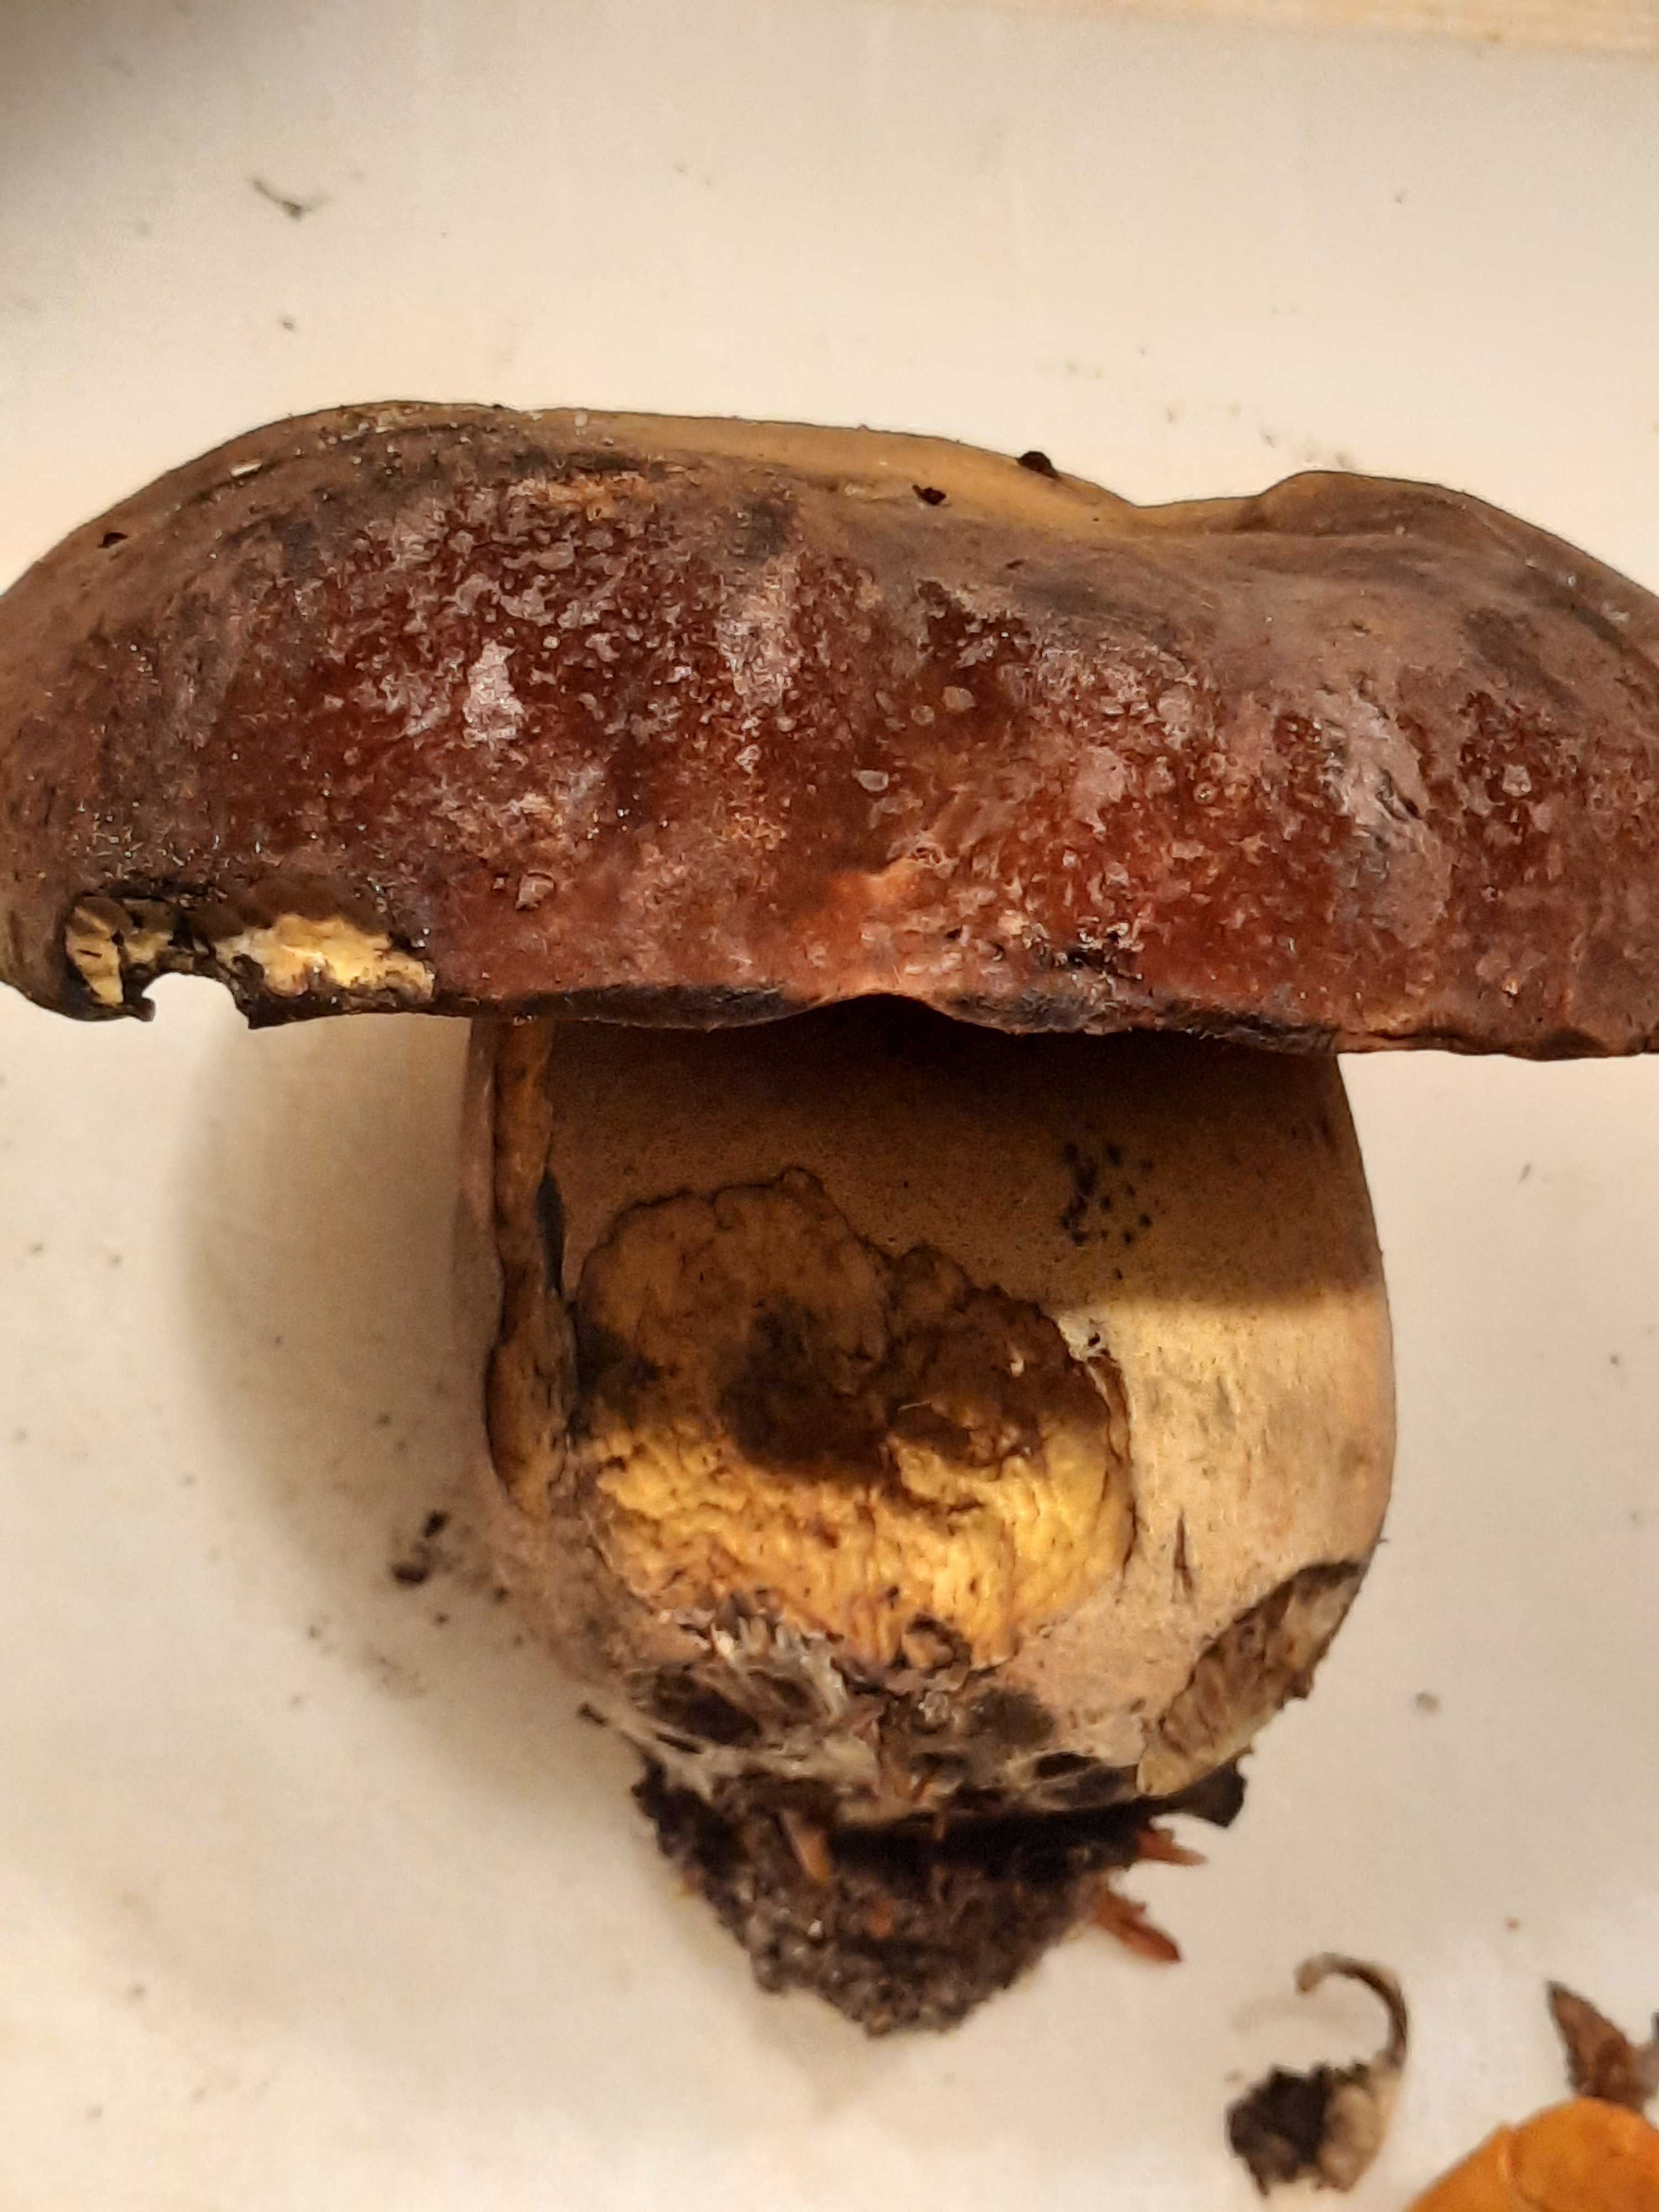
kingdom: Fungi
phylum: Basidiomycota
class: Agaricomycetes
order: Boletales
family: Boletaceae
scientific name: Boletaceae
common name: rørhatfamilien
